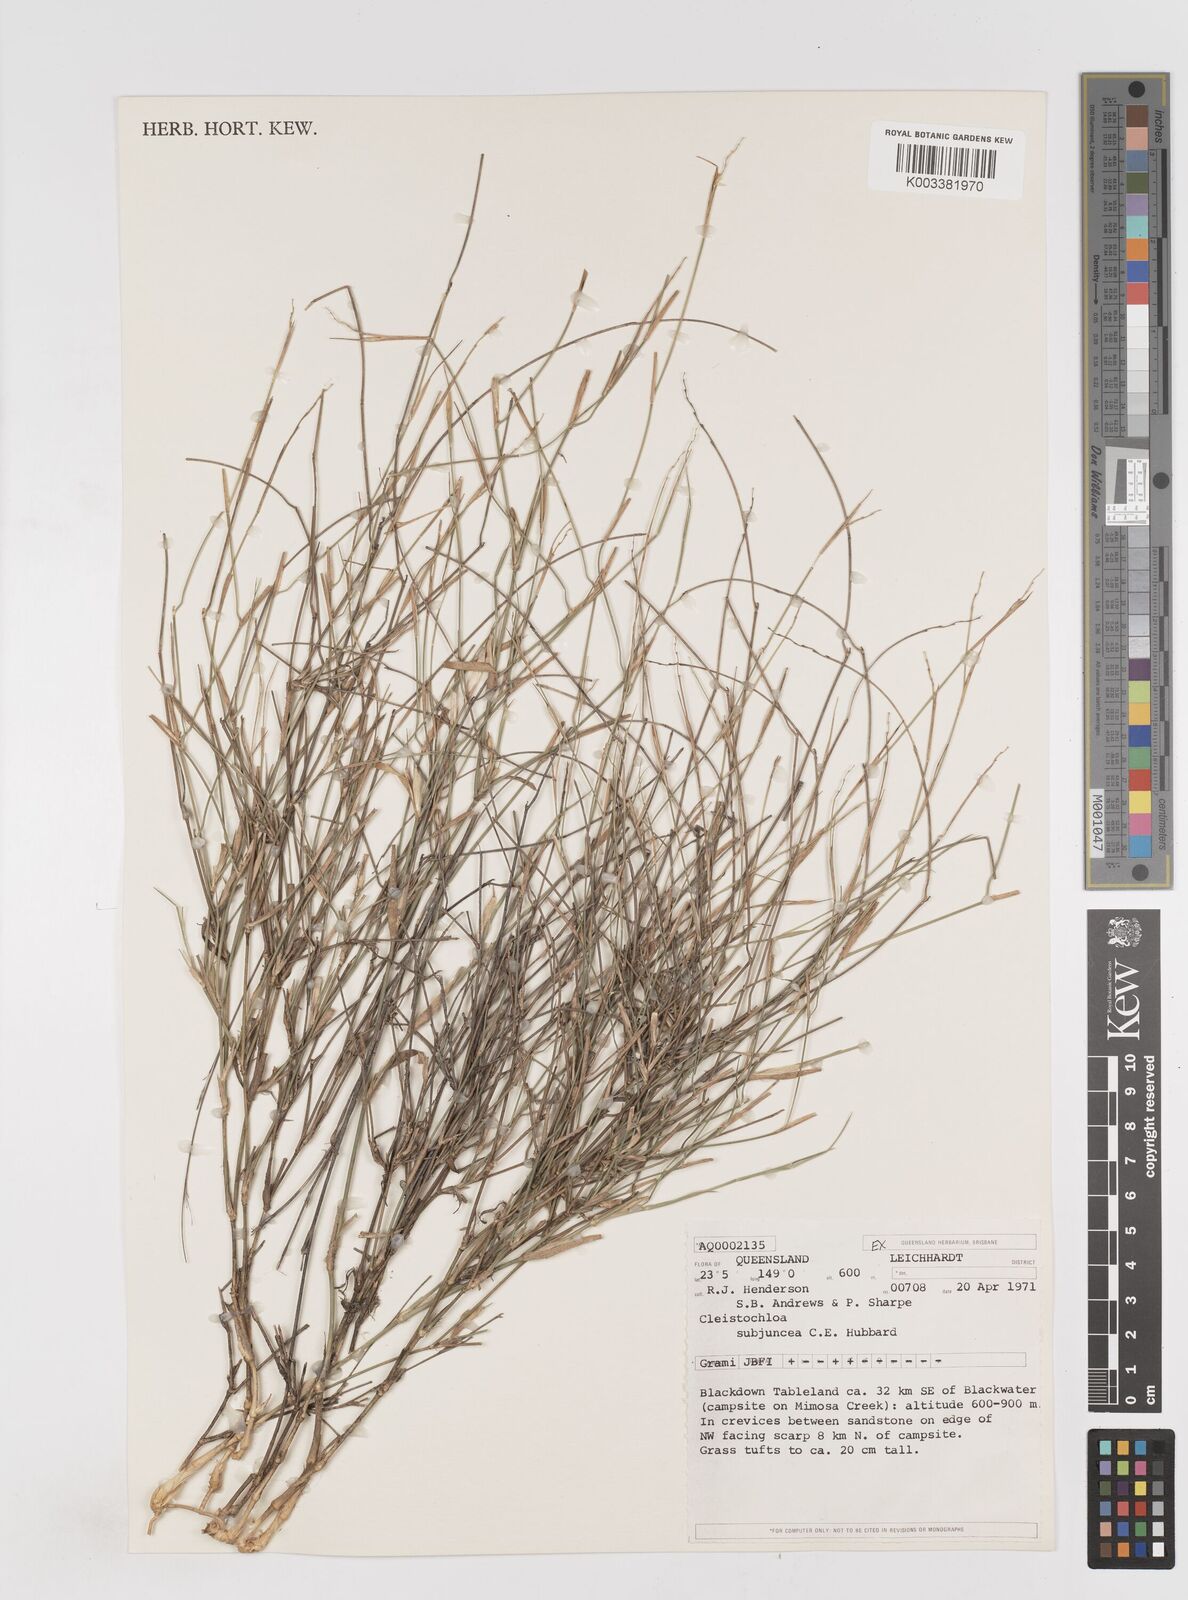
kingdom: Plantae
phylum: Tracheophyta
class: Liliopsida
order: Poales
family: Poaceae
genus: Cleistochloa
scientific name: Cleistochloa subjuncea
